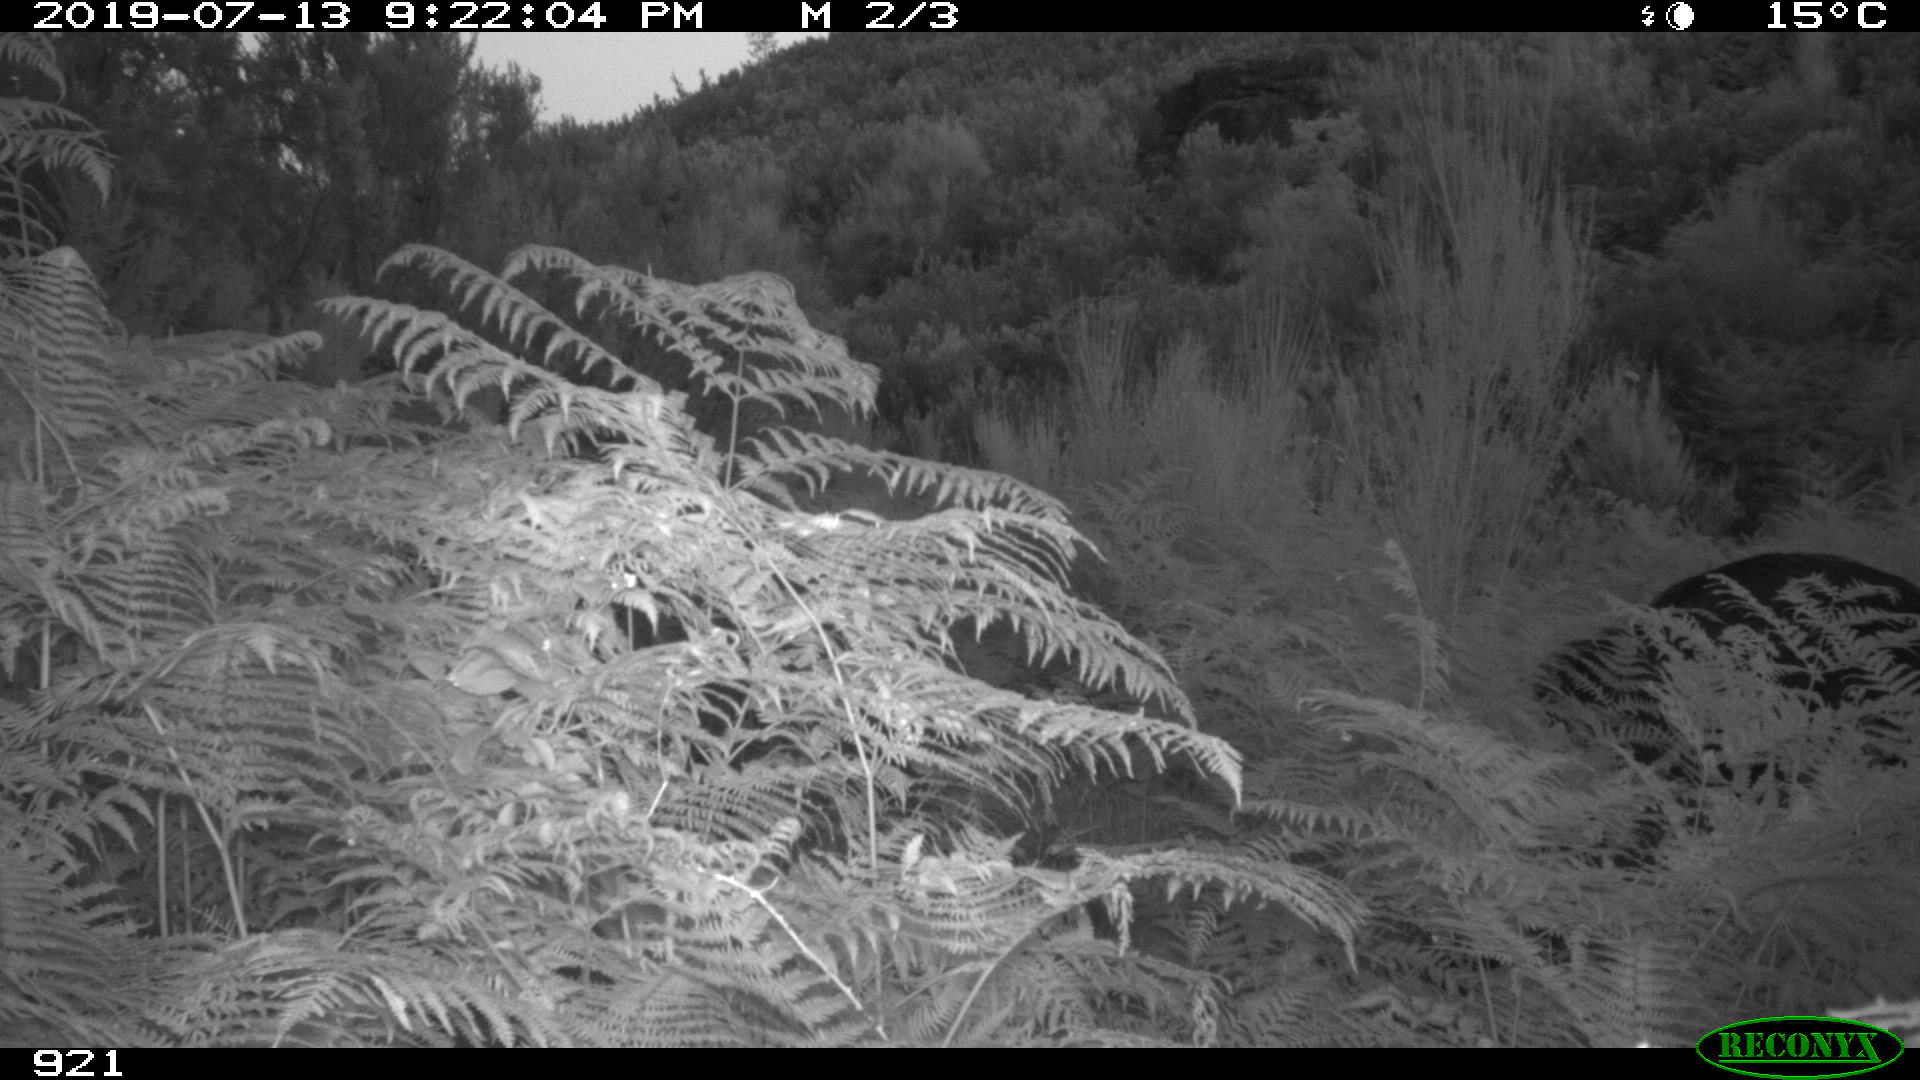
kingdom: Animalia
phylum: Chordata
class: Mammalia
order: Artiodactyla
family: Suidae
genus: Sus
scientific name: Sus scrofa
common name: Wild boar
